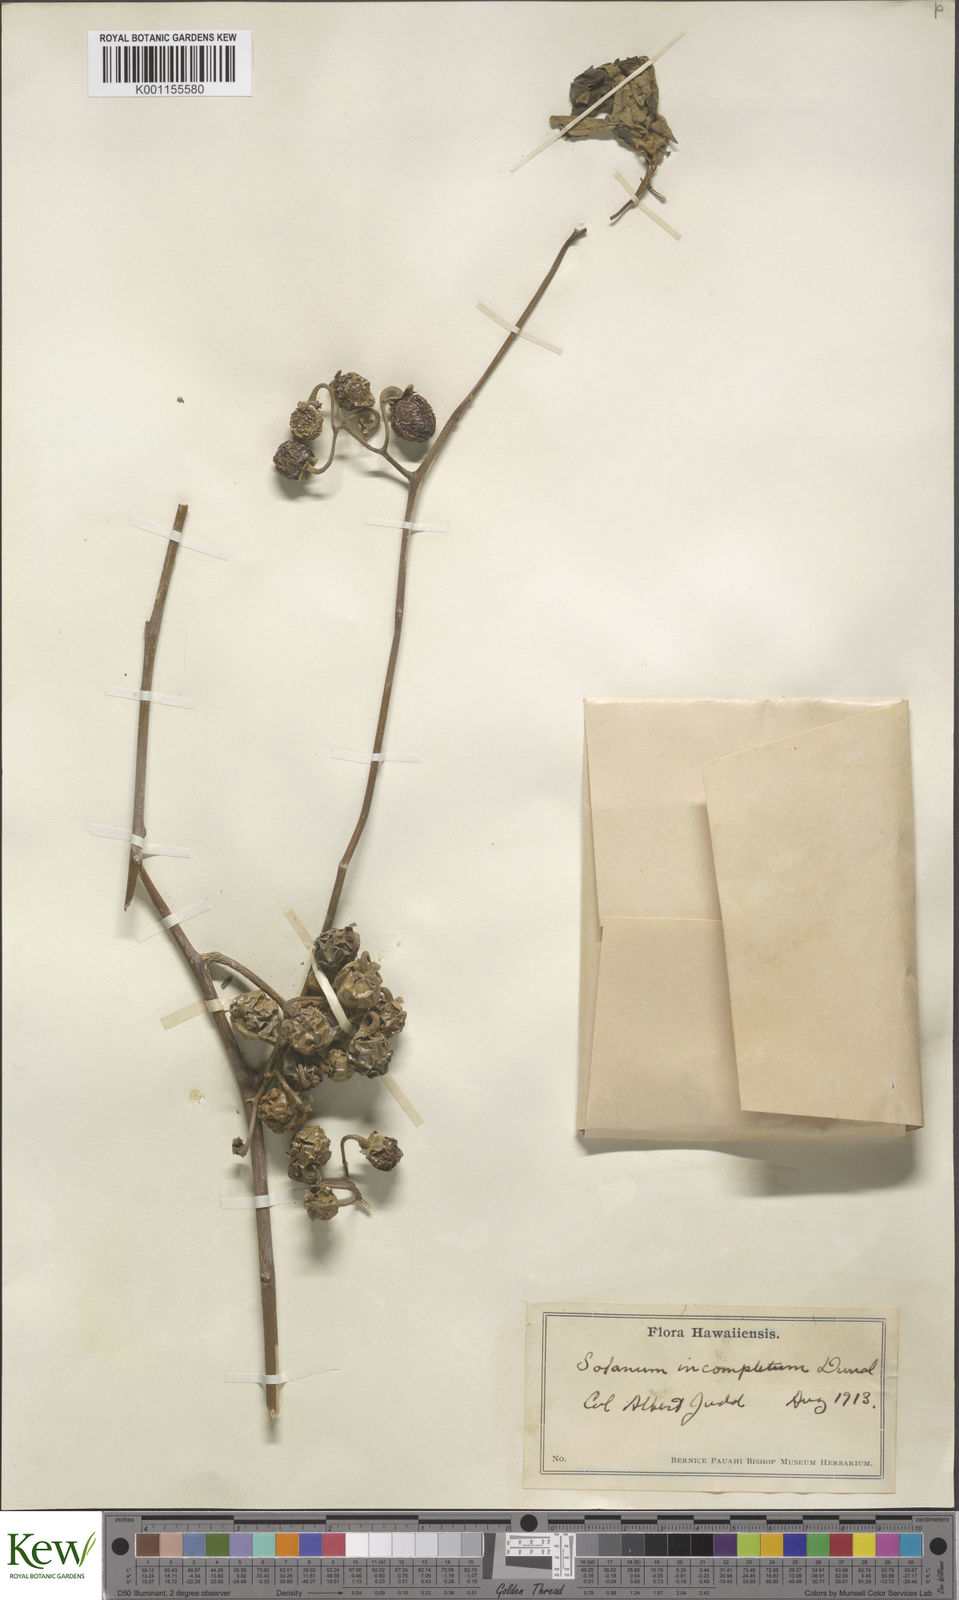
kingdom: Plantae
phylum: Tracheophyta
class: Magnoliopsida
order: Solanales
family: Solanaceae
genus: Solanum
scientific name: Solanum incompletum
